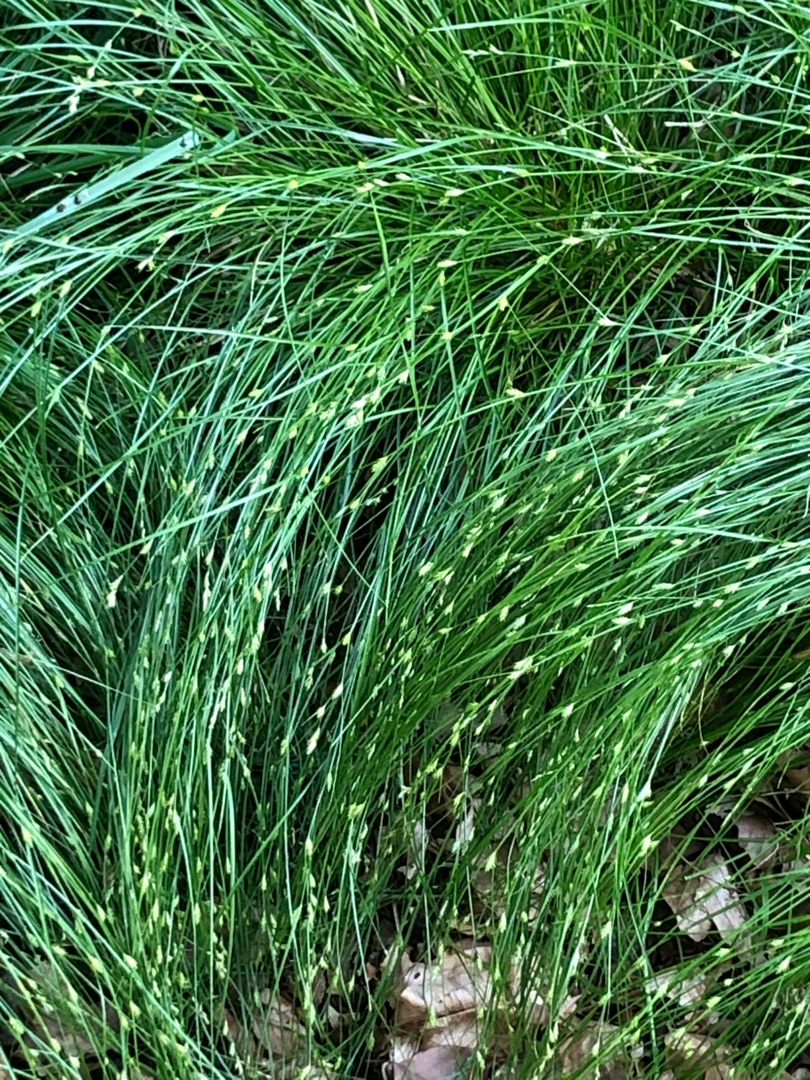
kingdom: Plantae
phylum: Tracheophyta
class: Liliopsida
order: Poales
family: Cyperaceae
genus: Carex
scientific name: Carex remota
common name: Akselblomstret star
